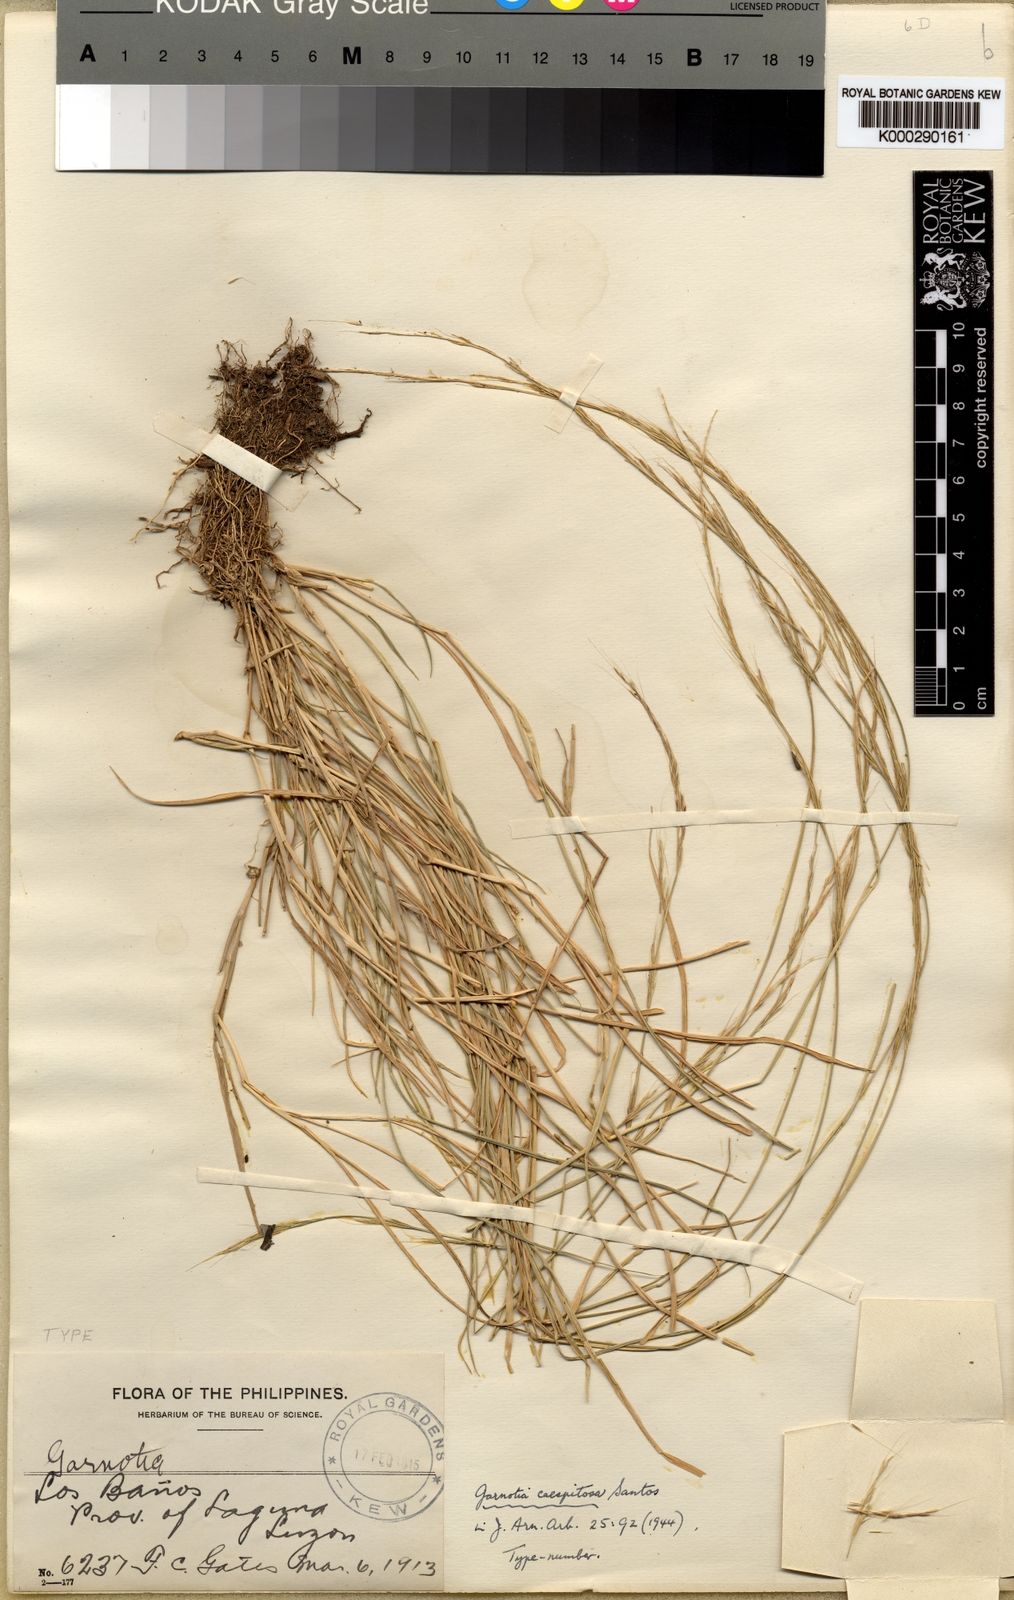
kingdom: Plantae
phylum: Tracheophyta
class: Liliopsida
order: Poales
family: Poaceae
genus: Garnotia
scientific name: Garnotia stricta
